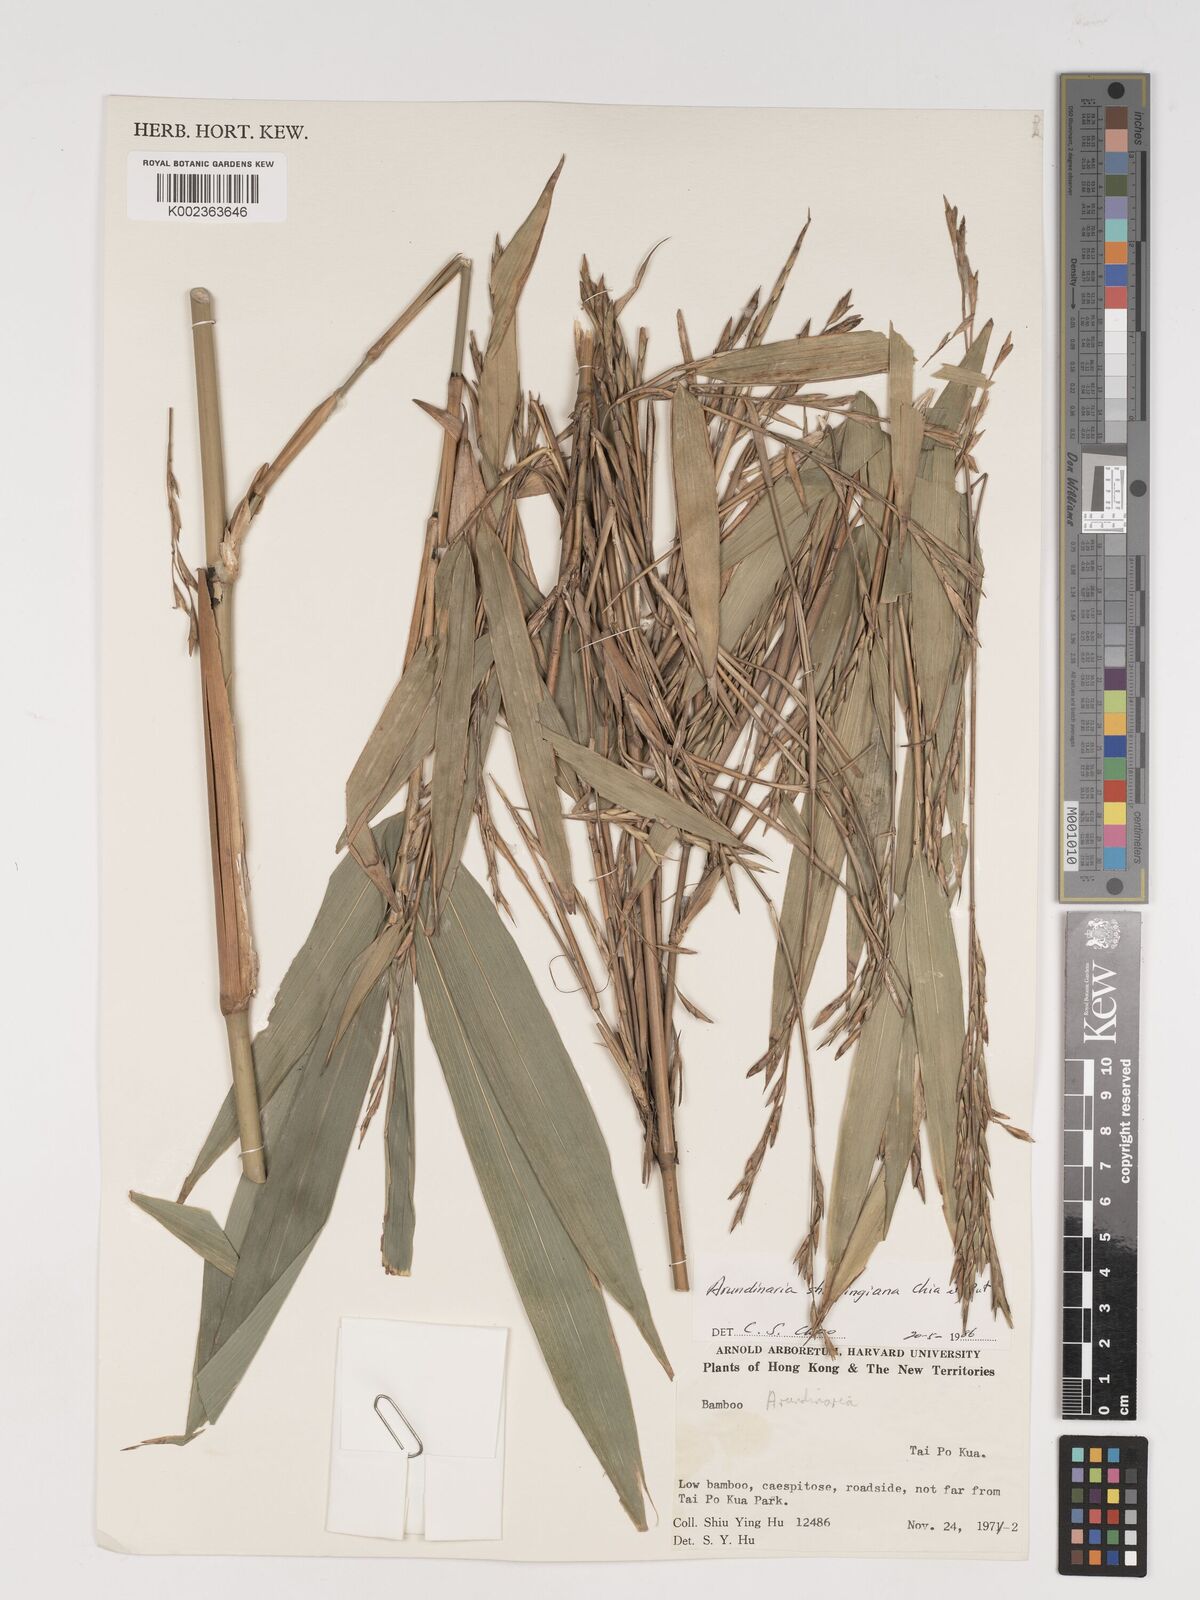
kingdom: Plantae
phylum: Tracheophyta
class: Liliopsida
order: Poales
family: Poaceae
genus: Oligostachyum
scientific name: Oligostachyum shiuyingianum
